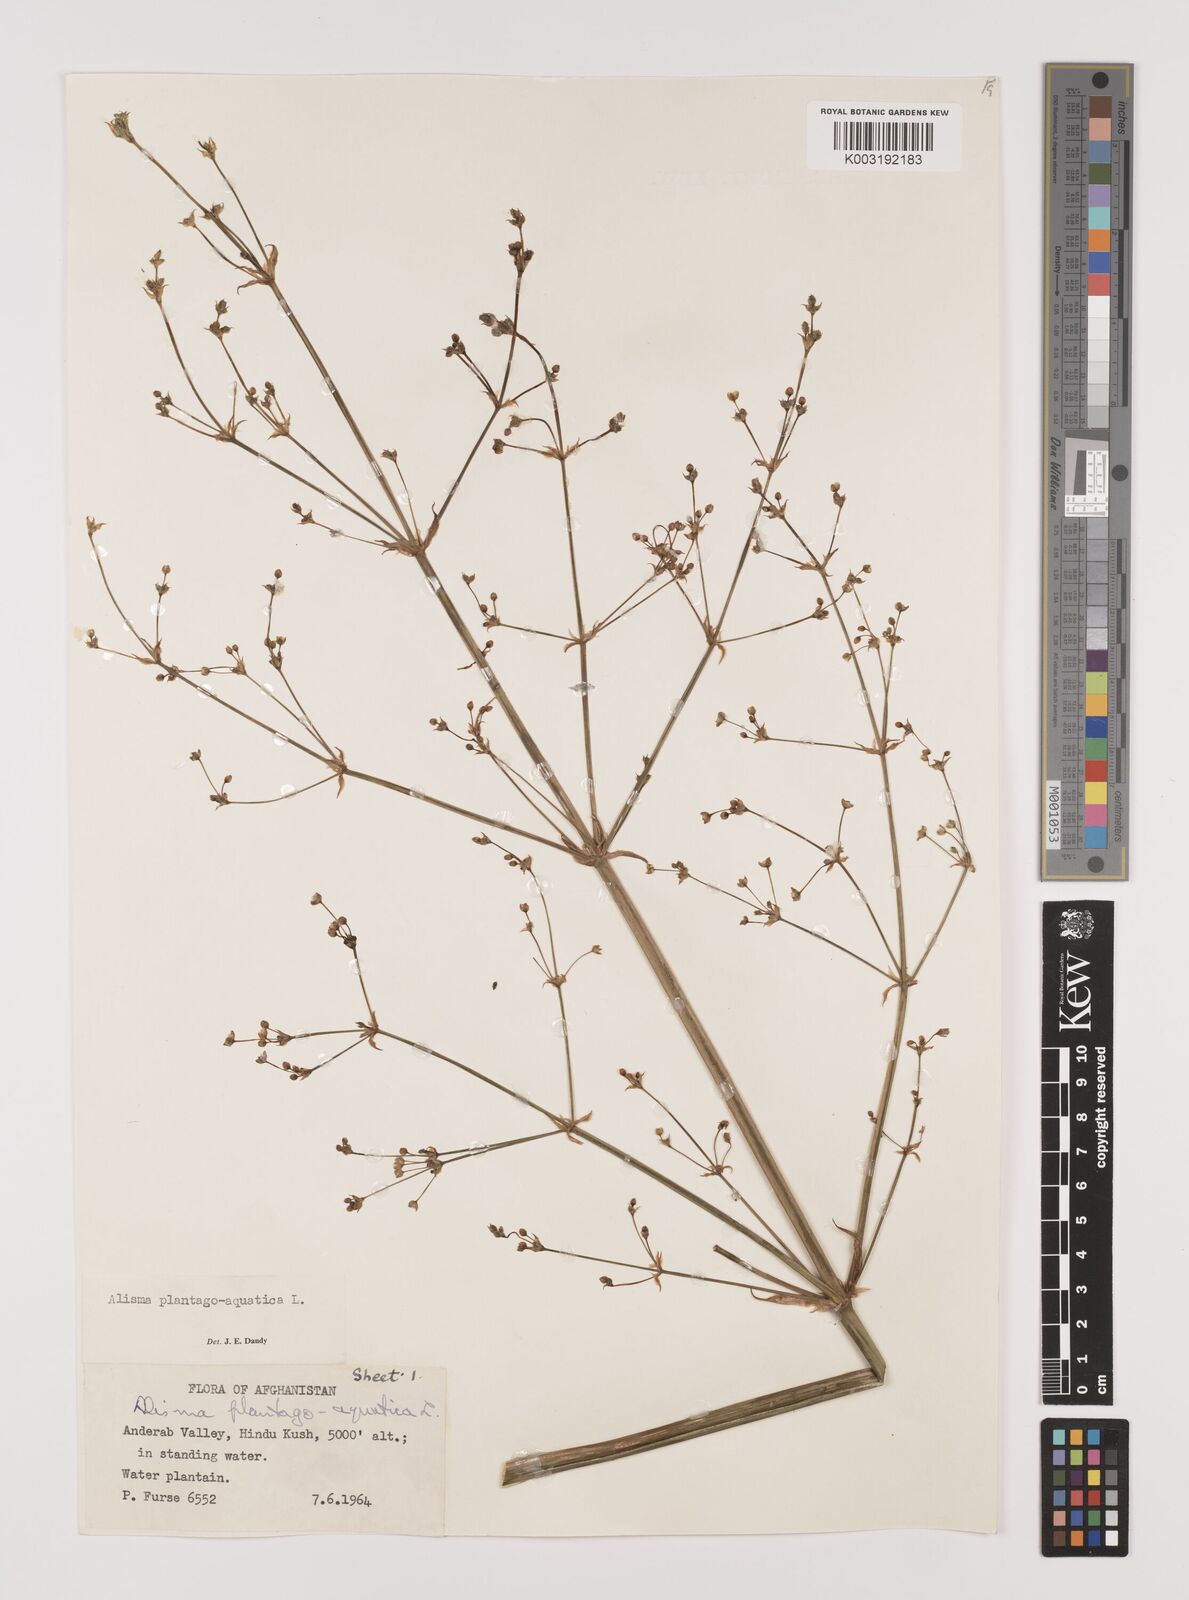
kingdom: Plantae
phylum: Tracheophyta
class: Liliopsida
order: Alismatales
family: Alismataceae
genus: Alisma
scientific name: Alisma plantago-aquatica
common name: Water-plantain
